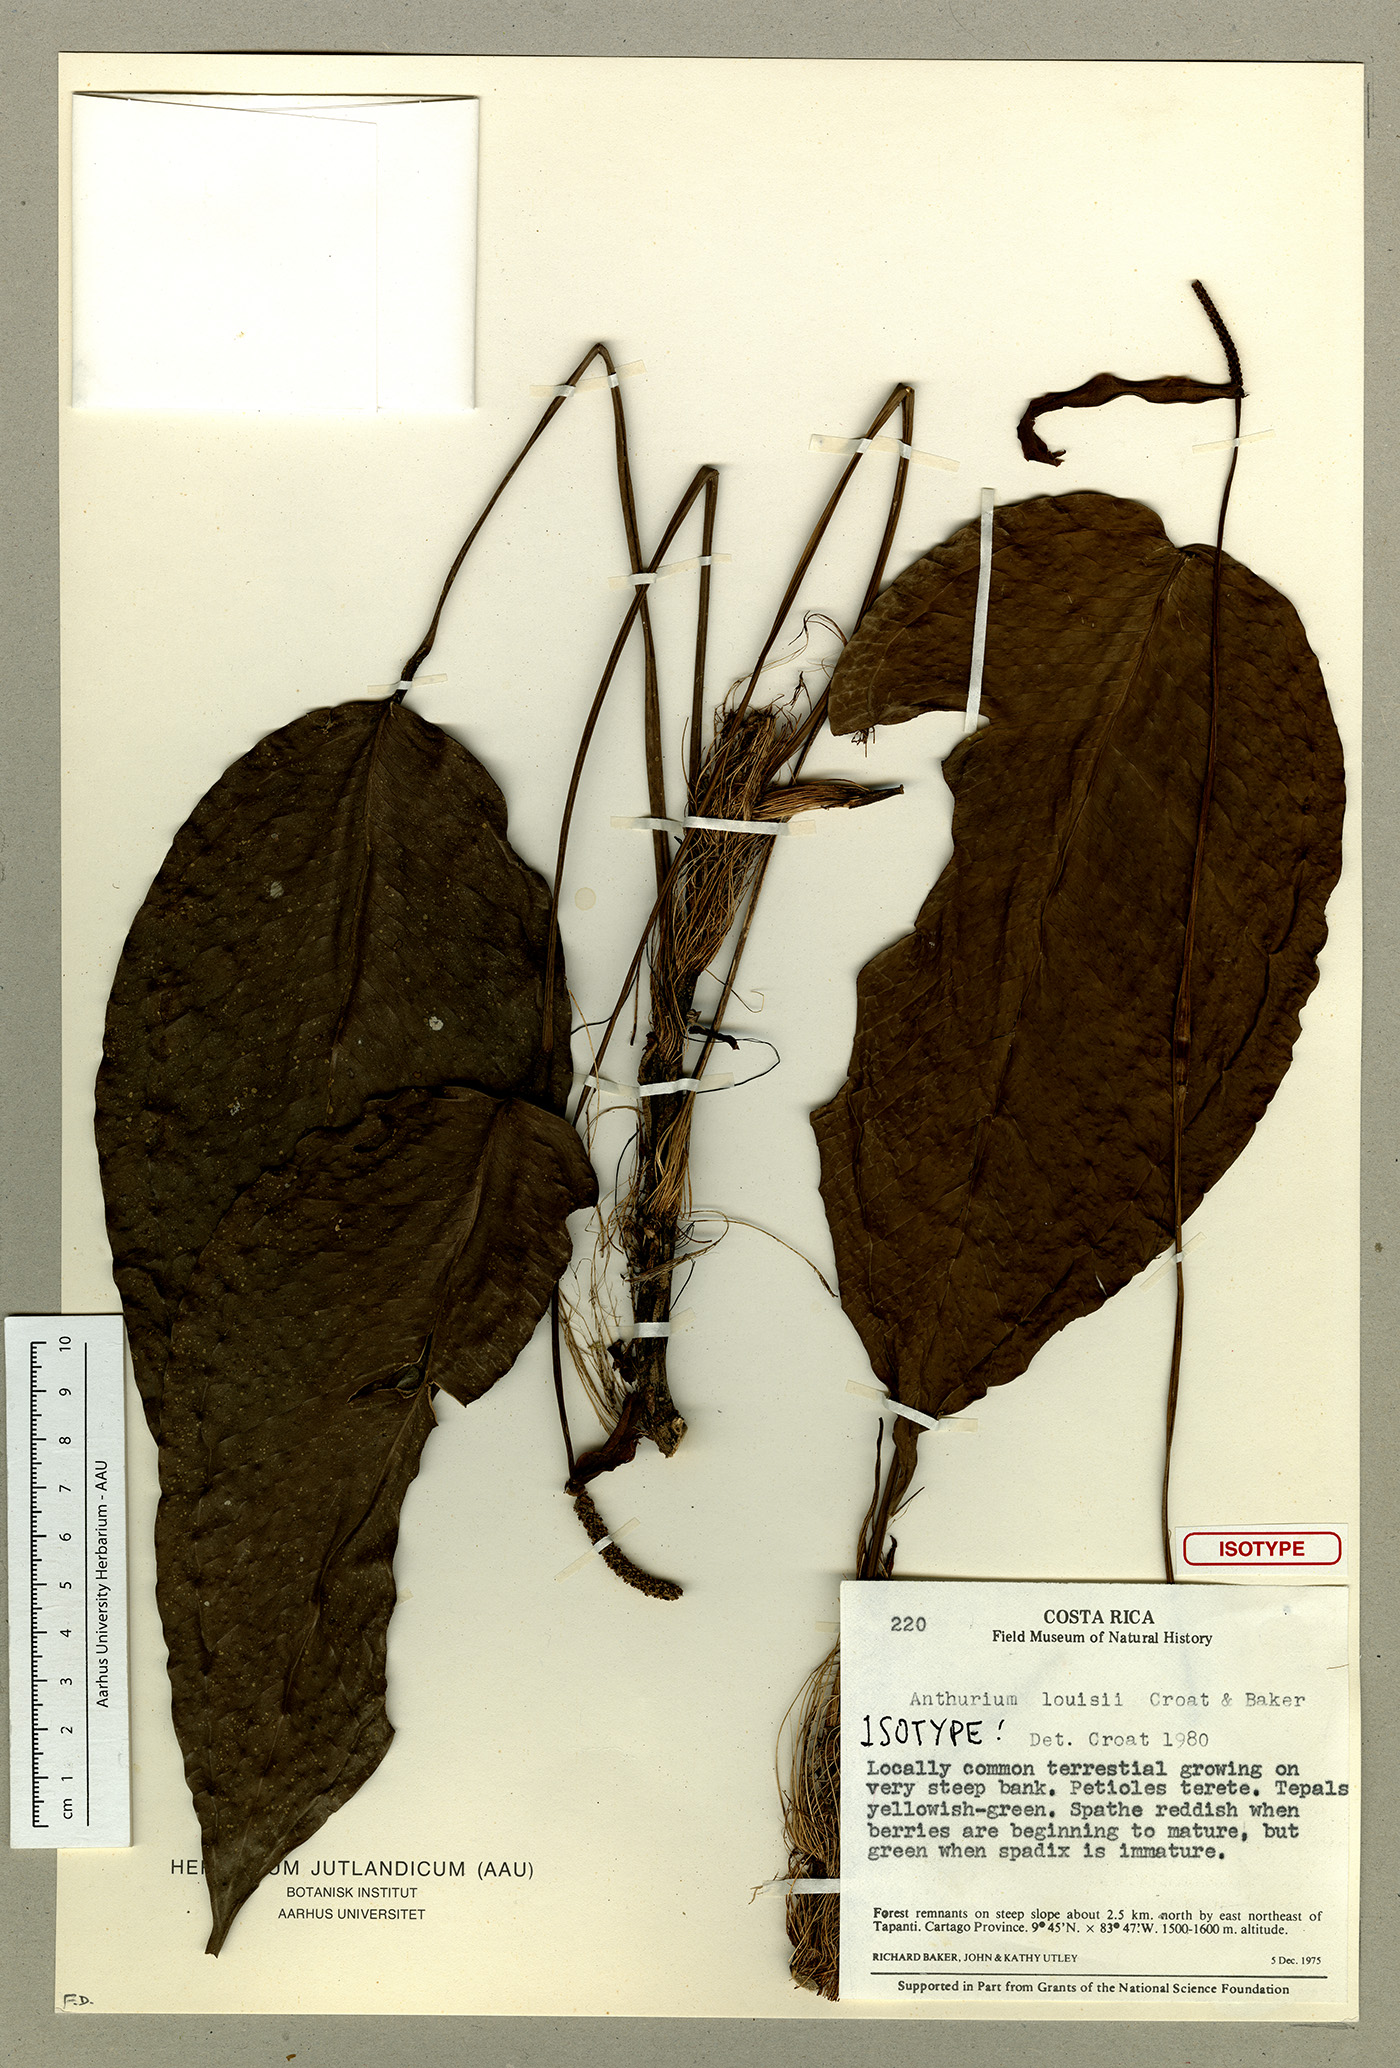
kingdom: Plantae
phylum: Tracheophyta
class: Liliopsida
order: Alismatales
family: Araceae
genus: Anthurium
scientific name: Anthurium louisii
